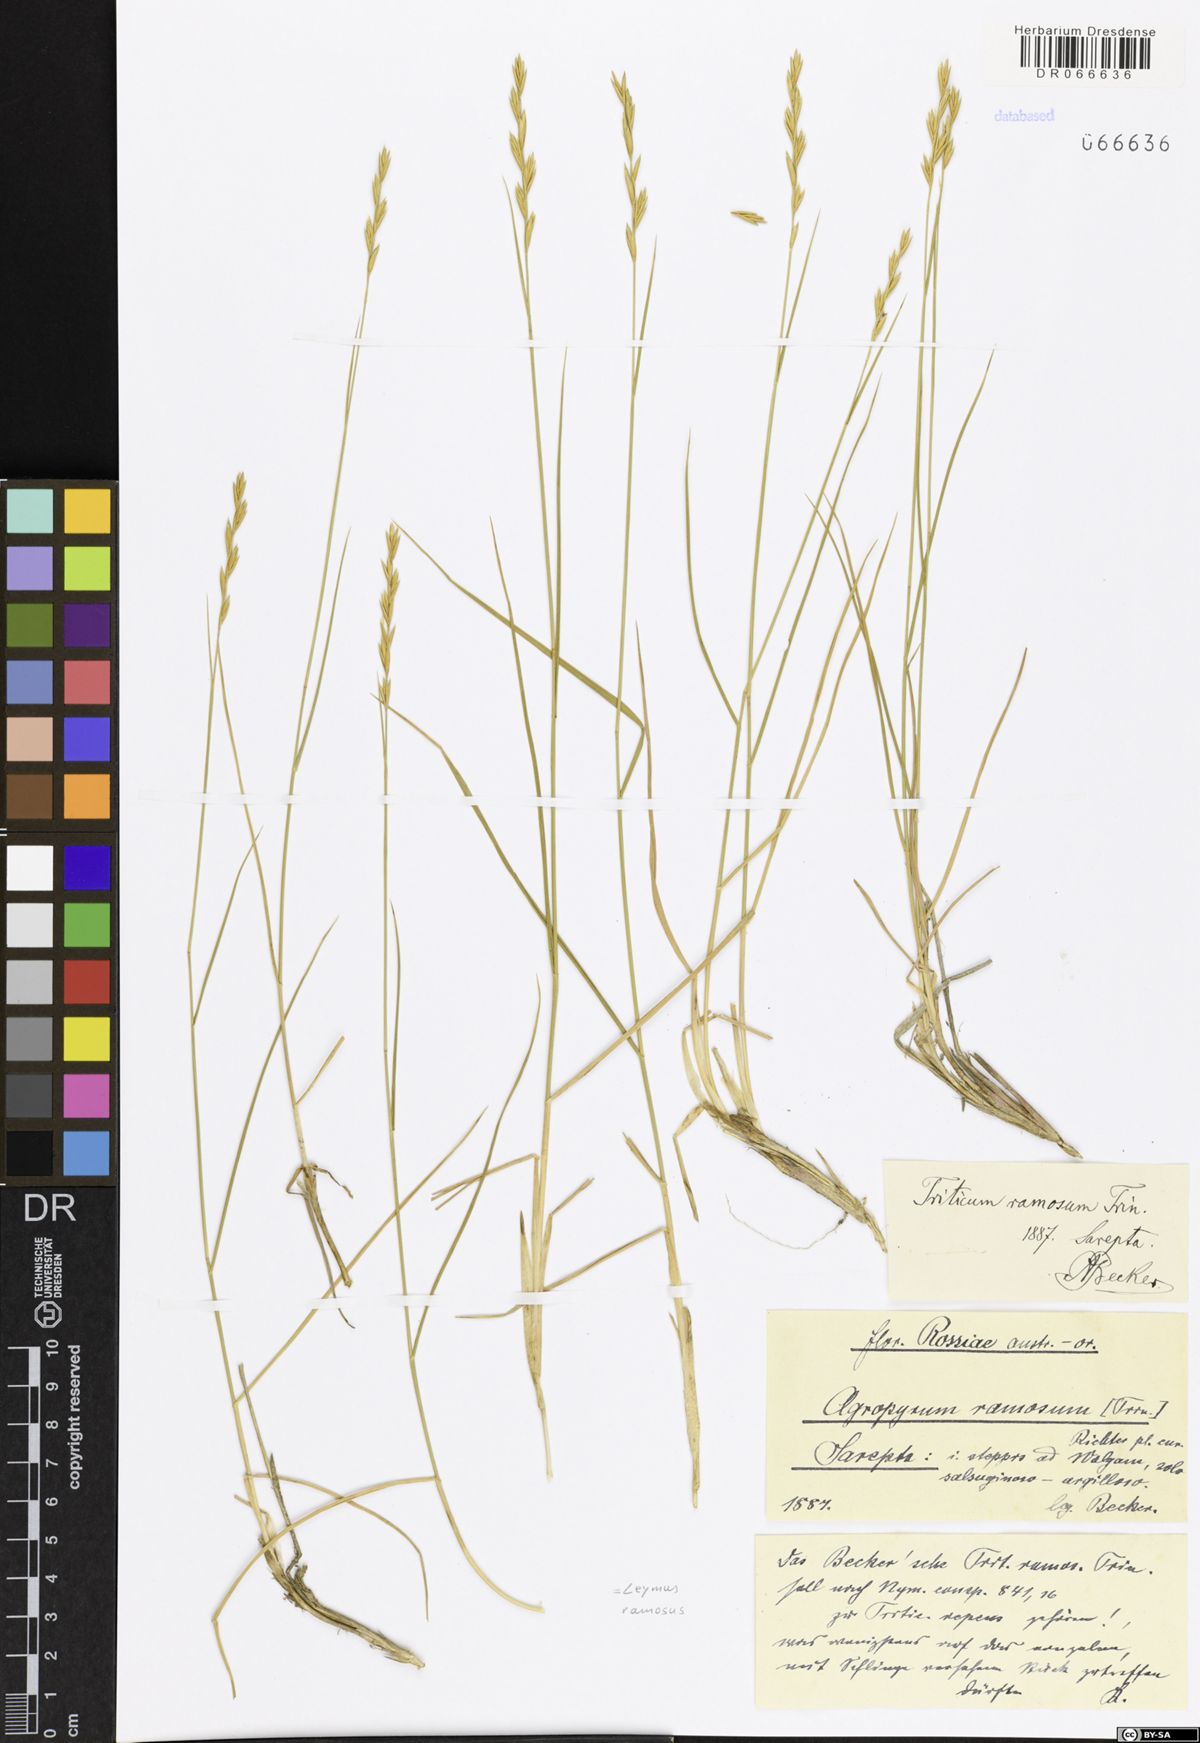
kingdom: Plantae
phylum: Tracheophyta
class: Liliopsida
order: Poales
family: Poaceae
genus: Leymus
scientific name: Leymus ramosus
